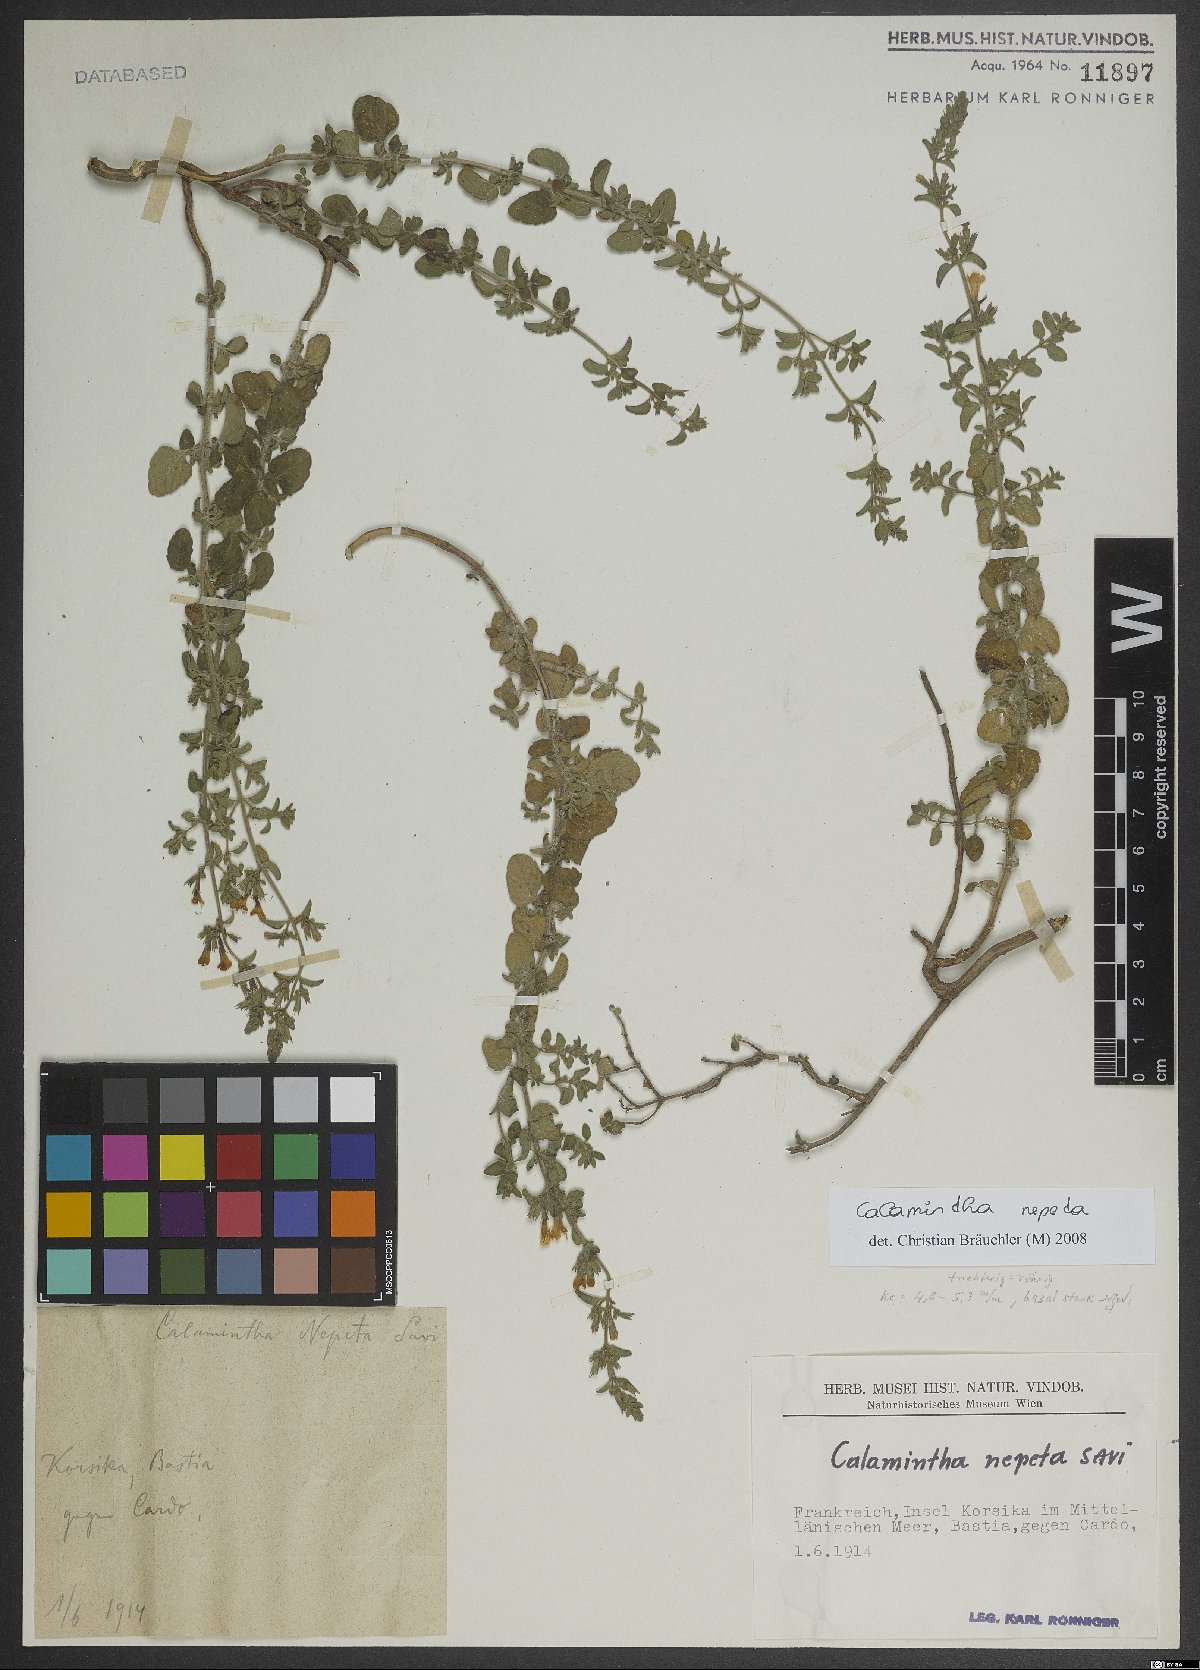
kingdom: Plantae
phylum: Tracheophyta
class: Magnoliopsida
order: Lamiales
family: Lamiaceae
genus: Clinopodium
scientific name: Clinopodium nepeta
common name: Lesser calamint
